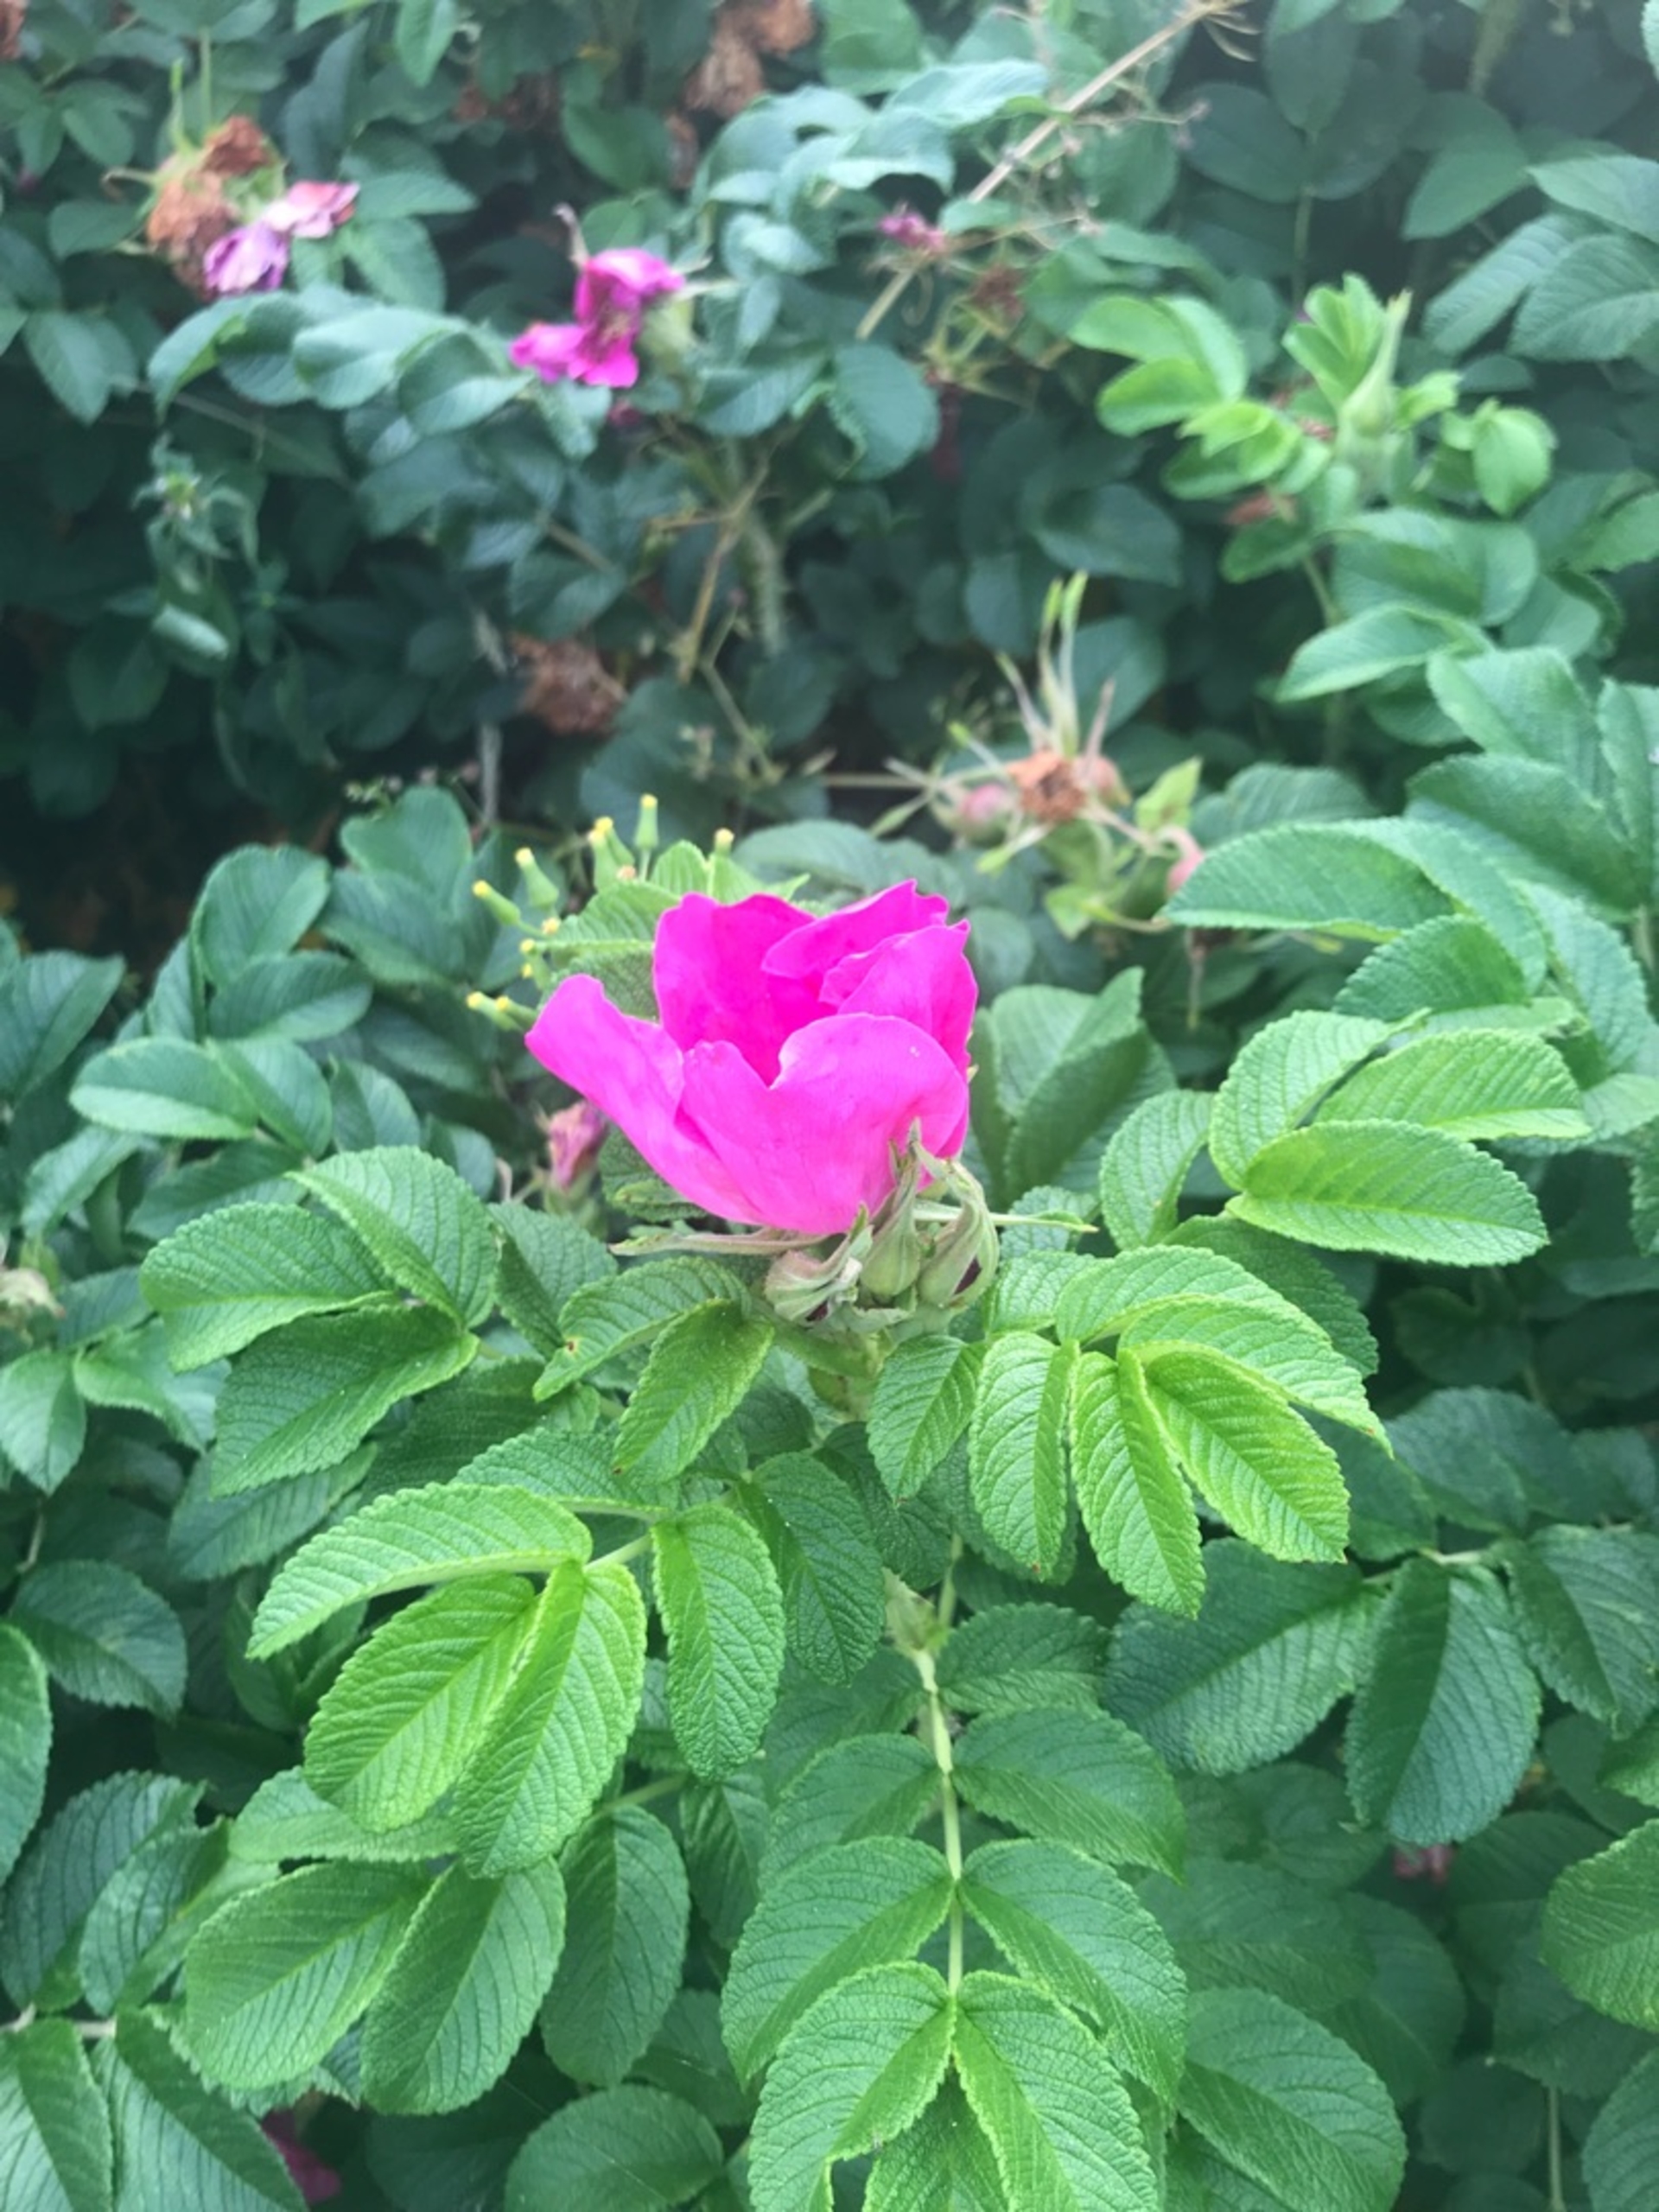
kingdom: Plantae
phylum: Tracheophyta
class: Magnoliopsida
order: Rosales
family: Rosaceae
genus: Rosa
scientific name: Rosa rugosa
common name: Rynket rose
